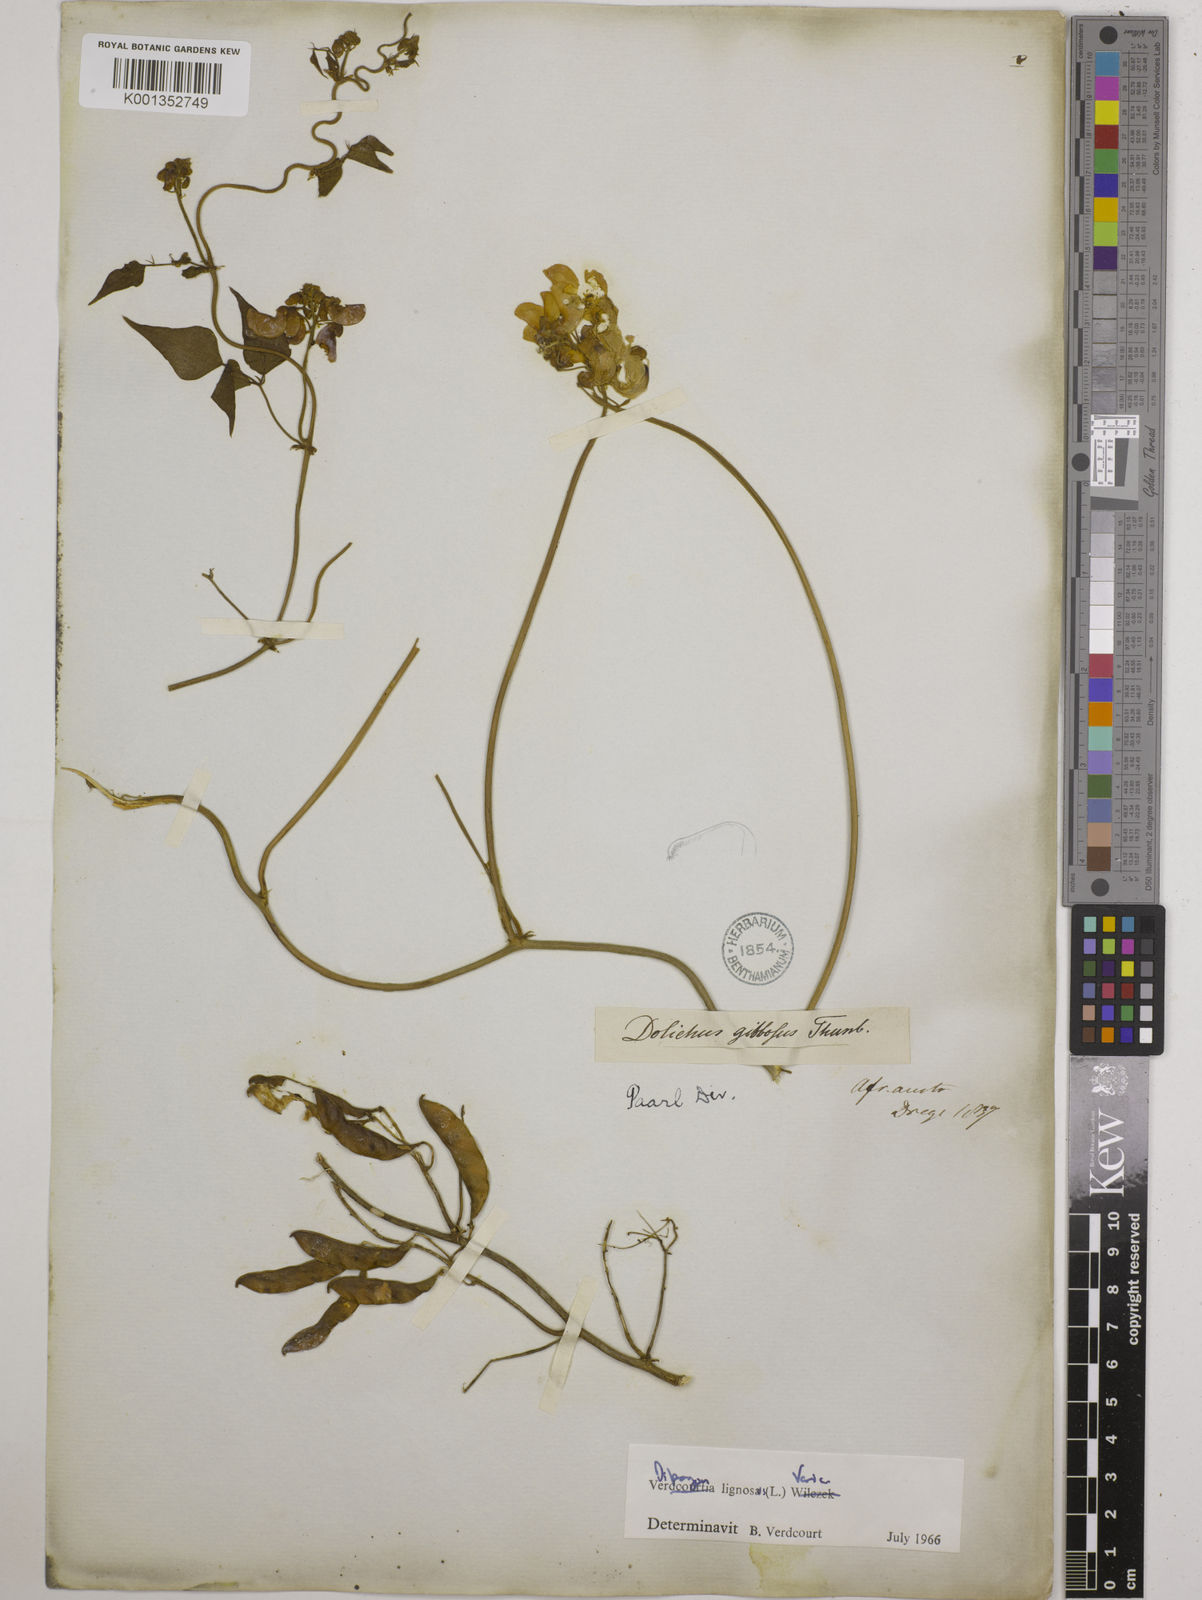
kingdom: Plantae
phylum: Tracheophyta
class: Magnoliopsida
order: Fabales
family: Fabaceae
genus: Dipogon
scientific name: Dipogon lignosus
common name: Okie bean
